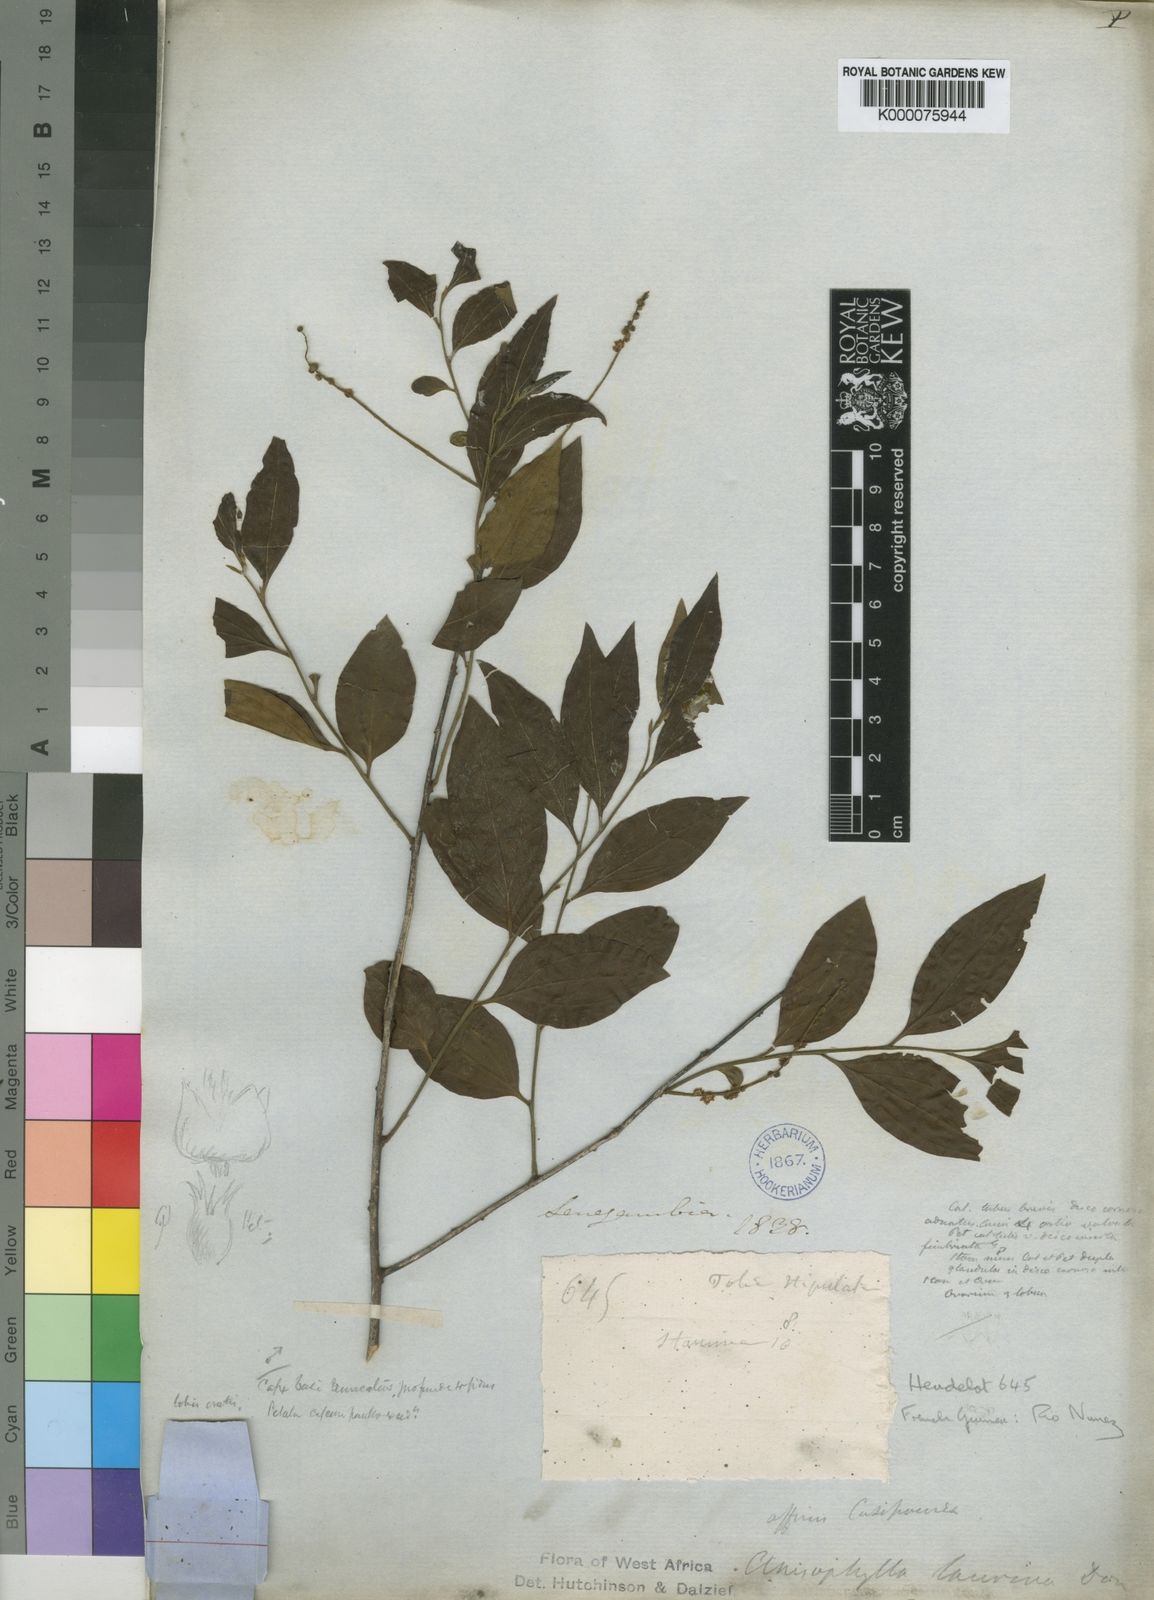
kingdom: Plantae
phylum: Tracheophyta
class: Magnoliopsida
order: Cucurbitales
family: Anisophylleaceae
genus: Anisophyllea
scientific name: Anisophyllea laurina
